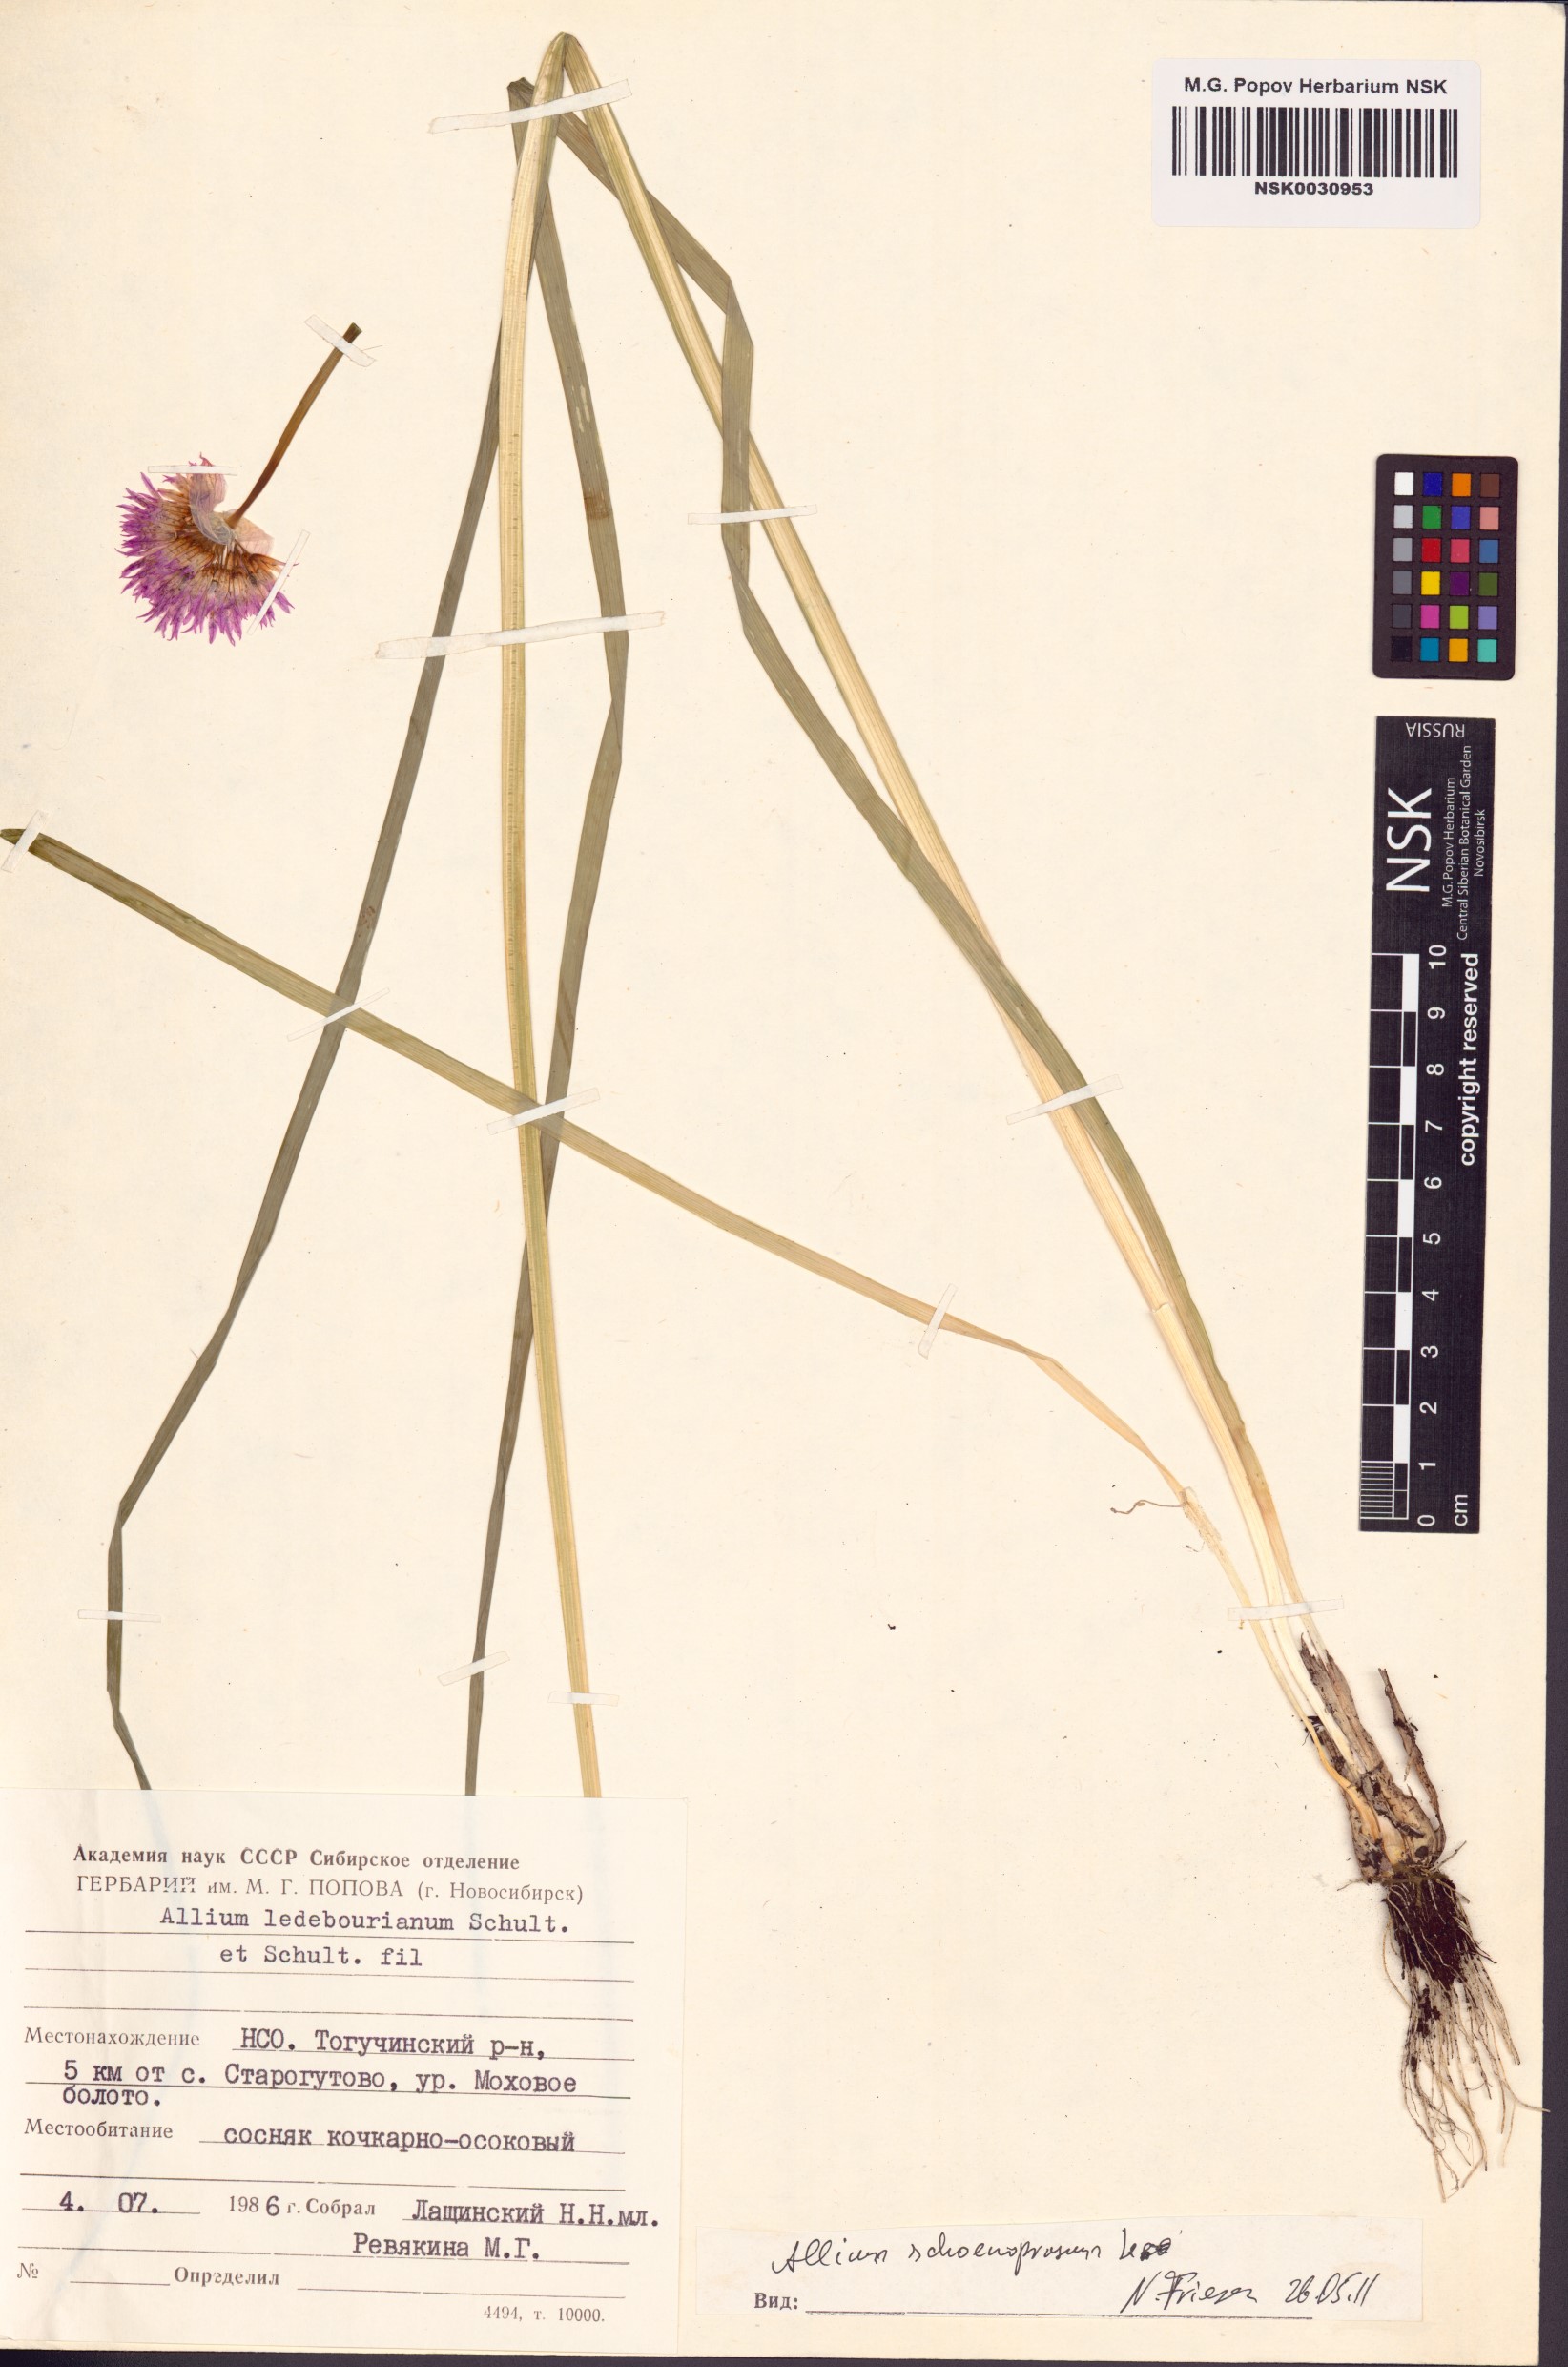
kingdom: Plantae
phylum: Tracheophyta
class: Liliopsida
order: Asparagales
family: Amaryllidaceae
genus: Allium
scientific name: Allium schoenoprasum
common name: Chives
